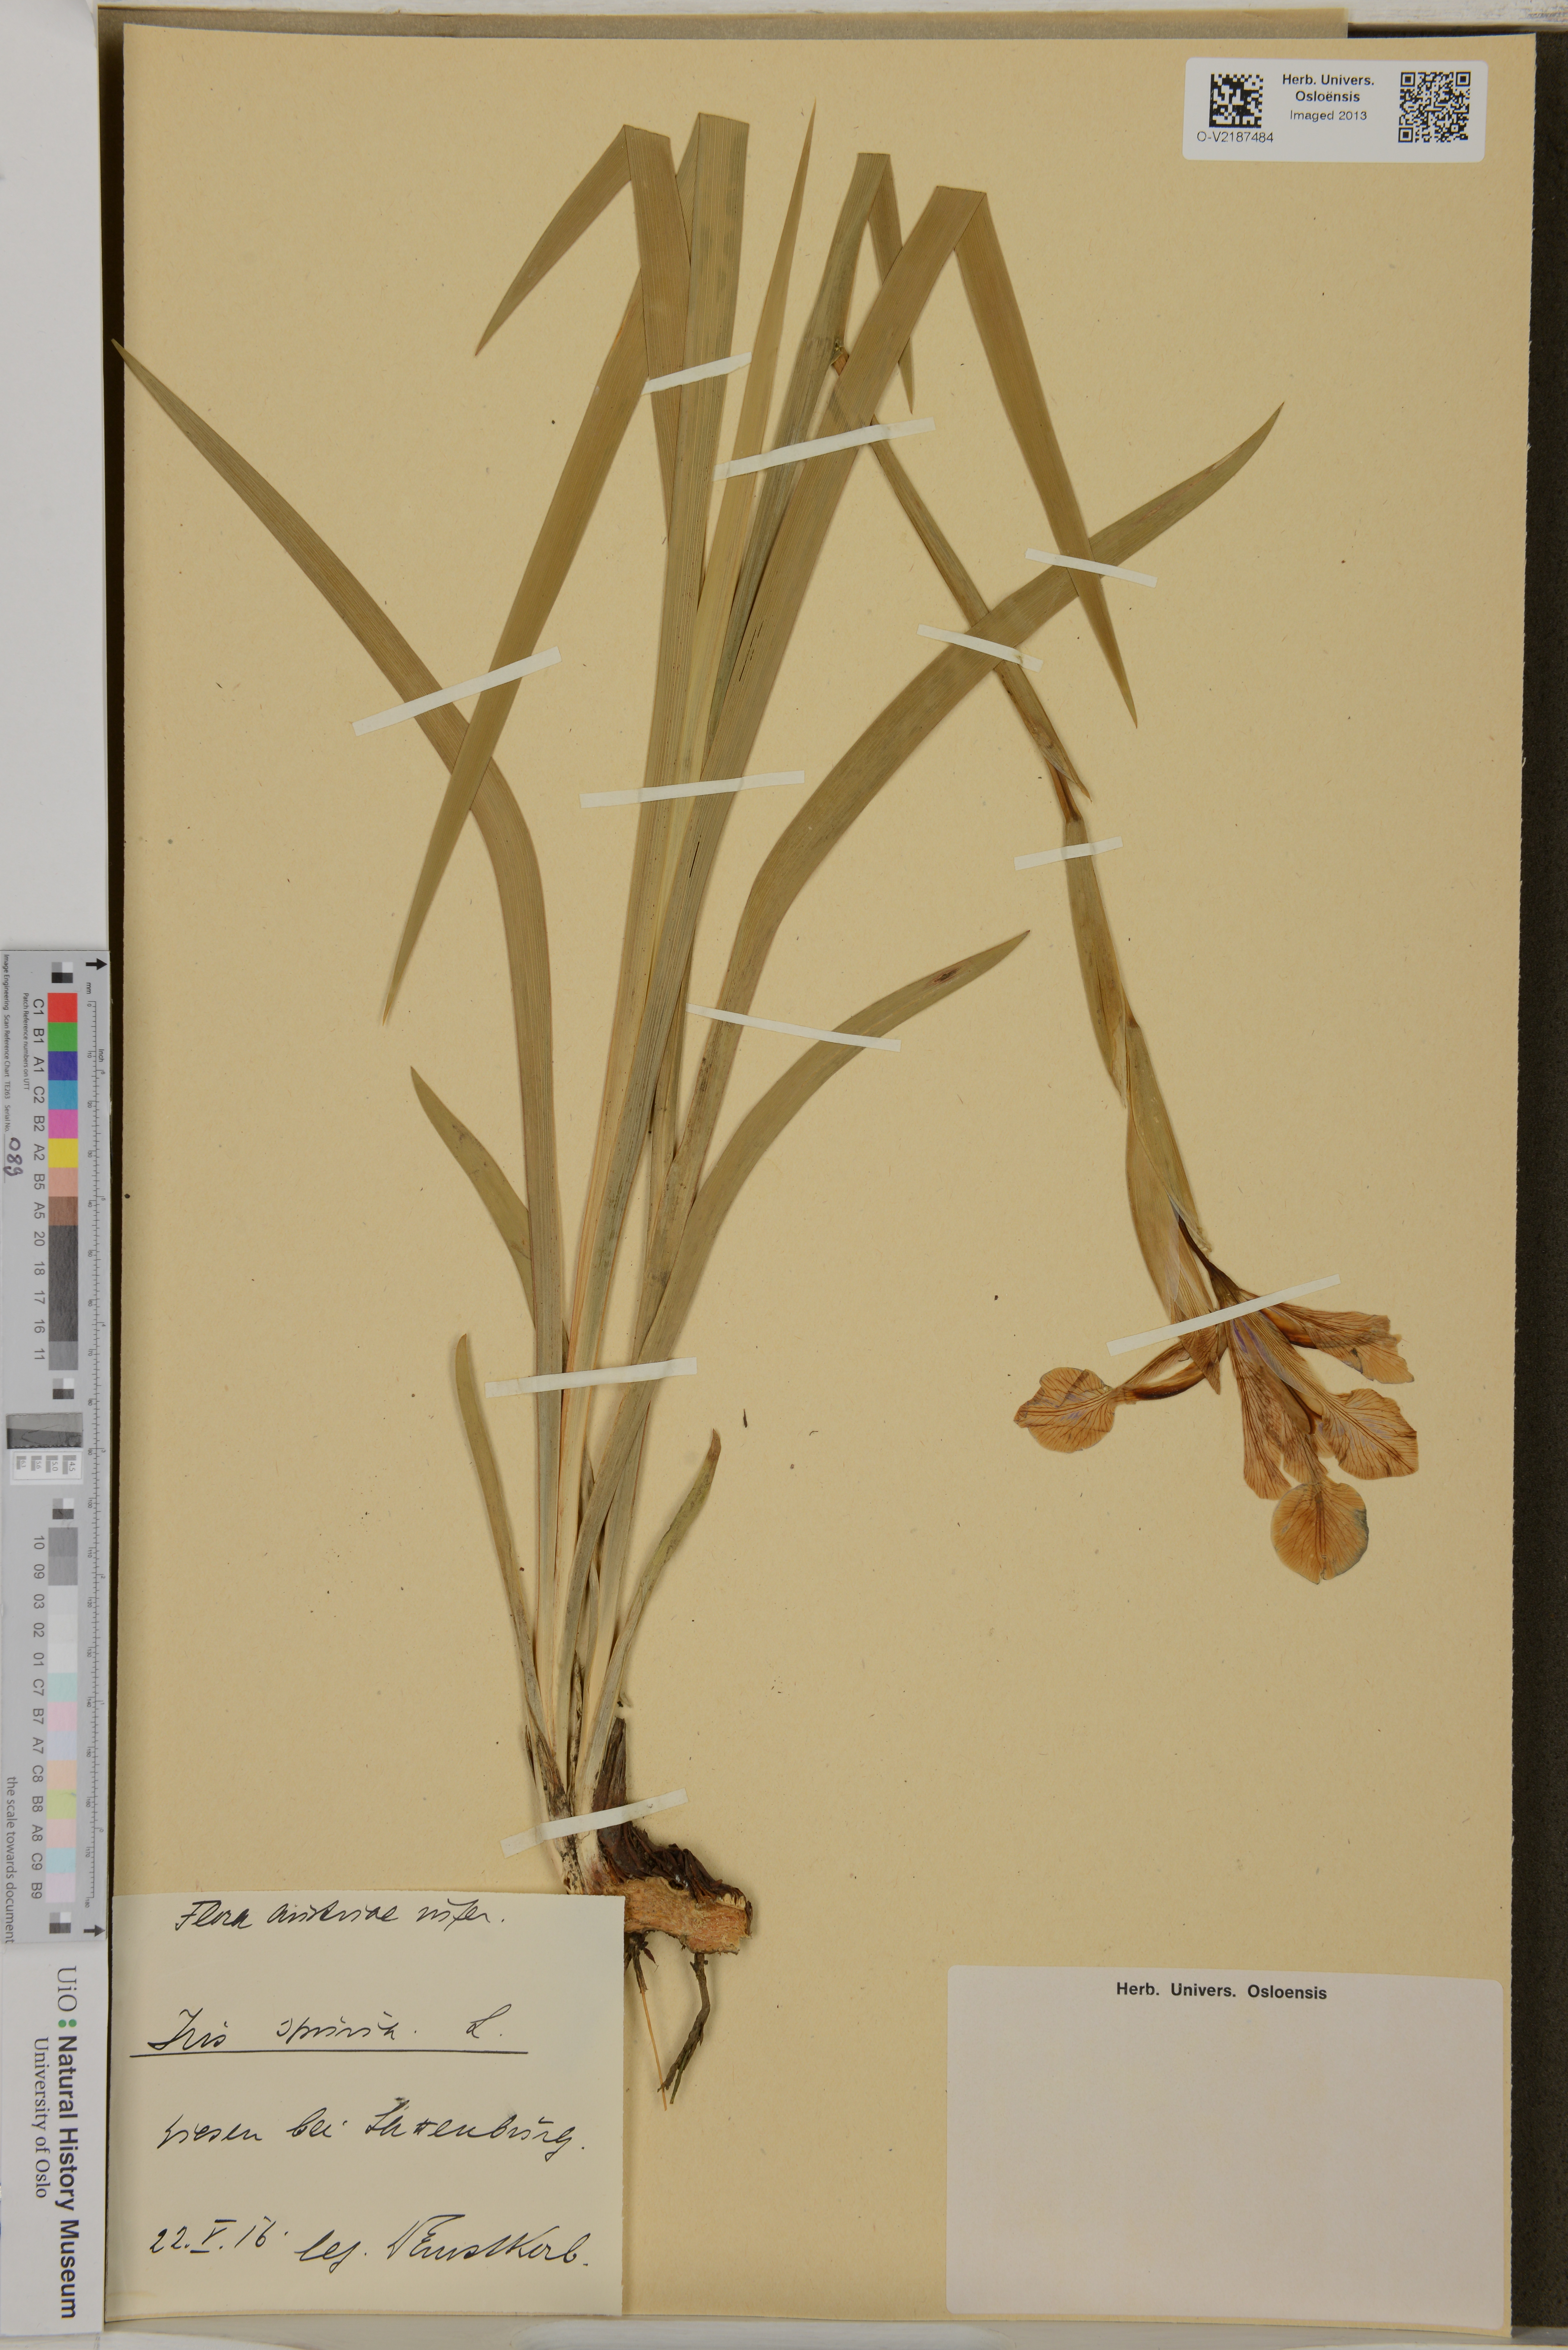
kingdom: Plantae
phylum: Tracheophyta
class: Liliopsida
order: Asparagales
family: Iridaceae
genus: Iris
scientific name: Iris spuria
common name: Blue iris
